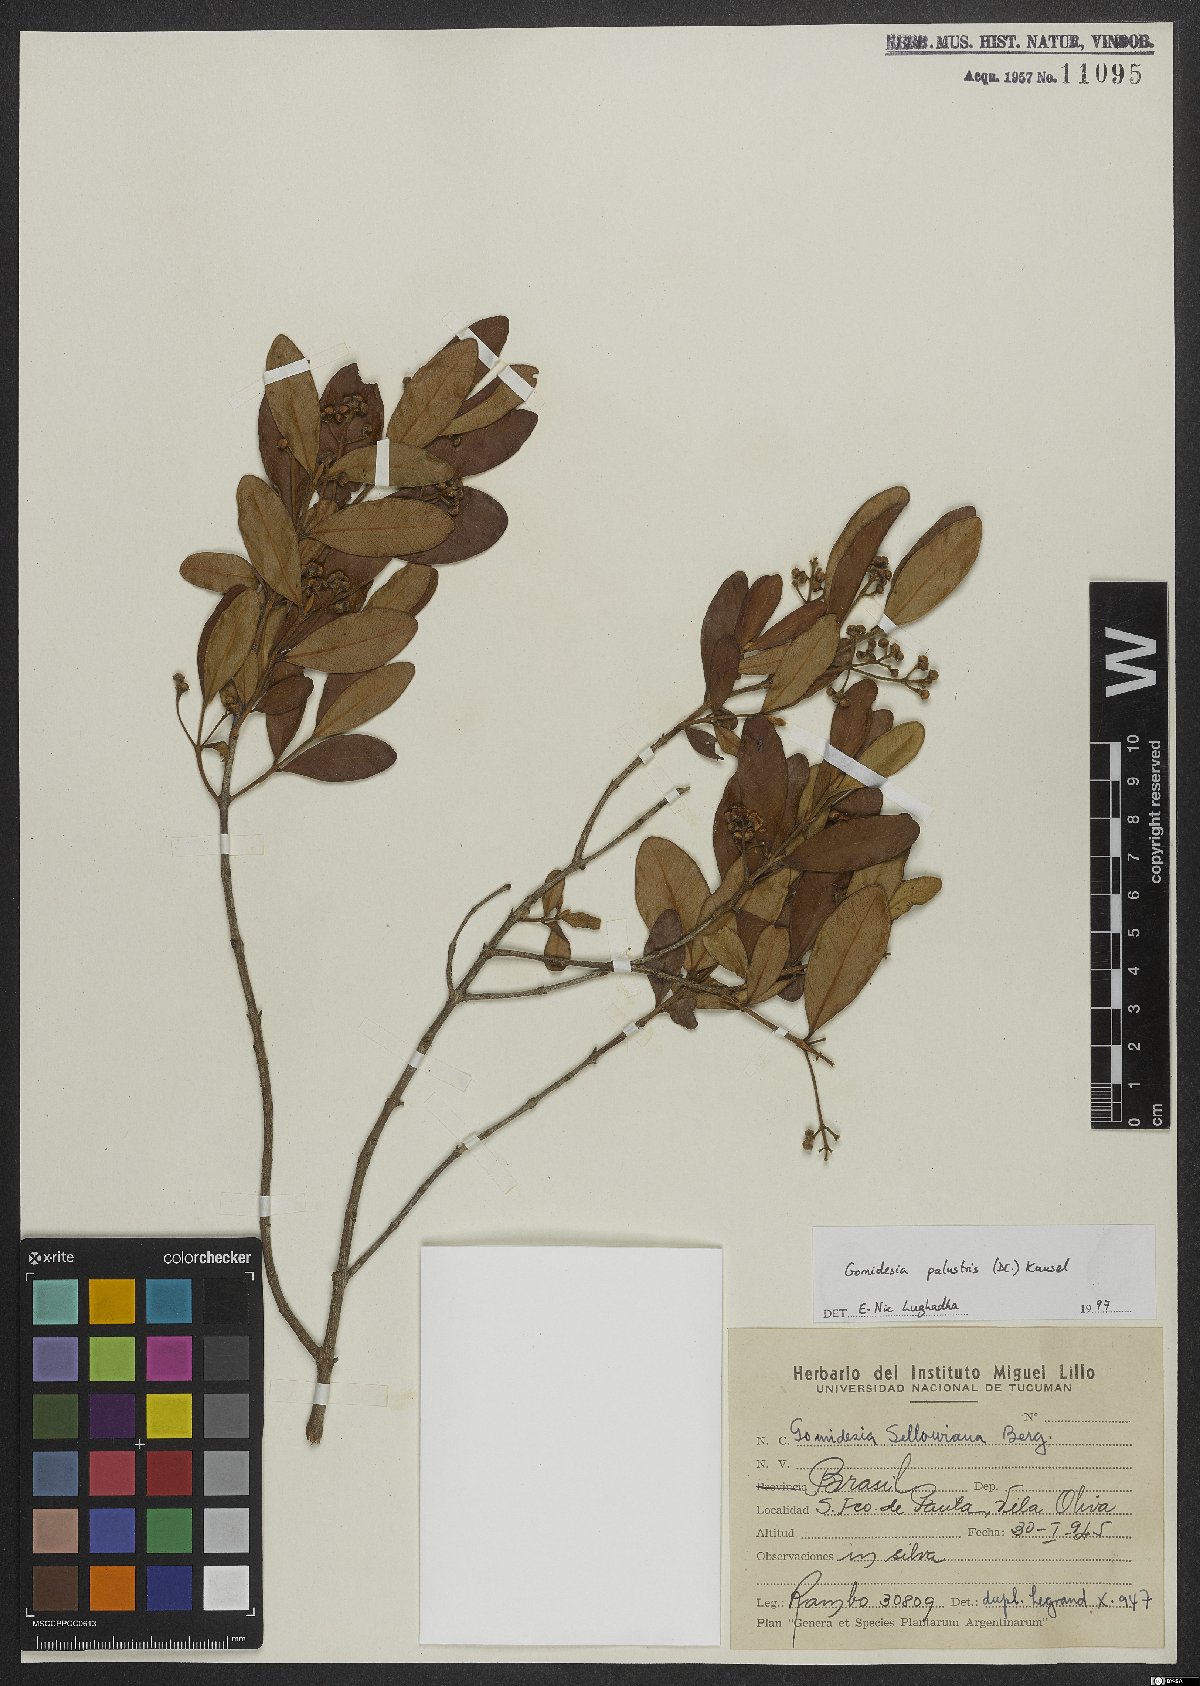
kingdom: Plantae
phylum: Tracheophyta
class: Magnoliopsida
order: Myrtales
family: Myrtaceae
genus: Myrcia
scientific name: Myrcia palustris
